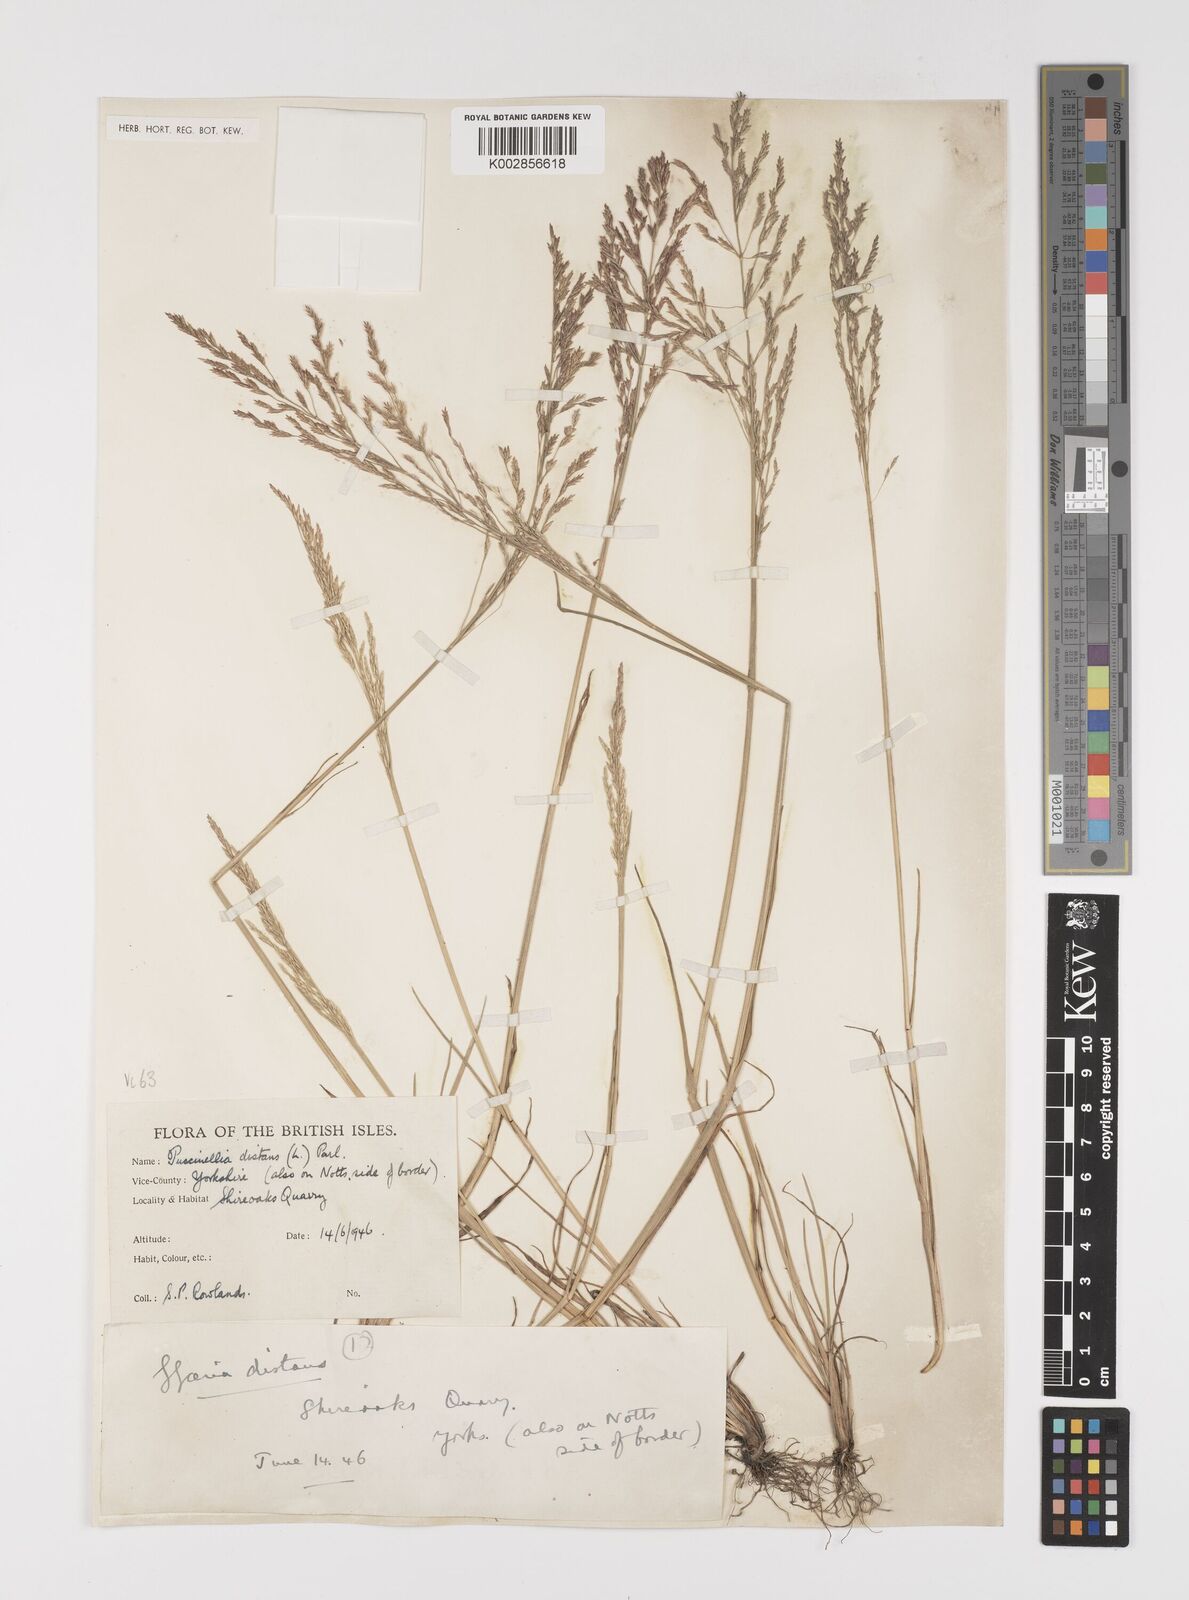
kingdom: Plantae
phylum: Tracheophyta
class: Liliopsida
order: Poales
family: Poaceae
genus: Puccinellia
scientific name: Puccinellia distans
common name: Weeping alkaligrass
